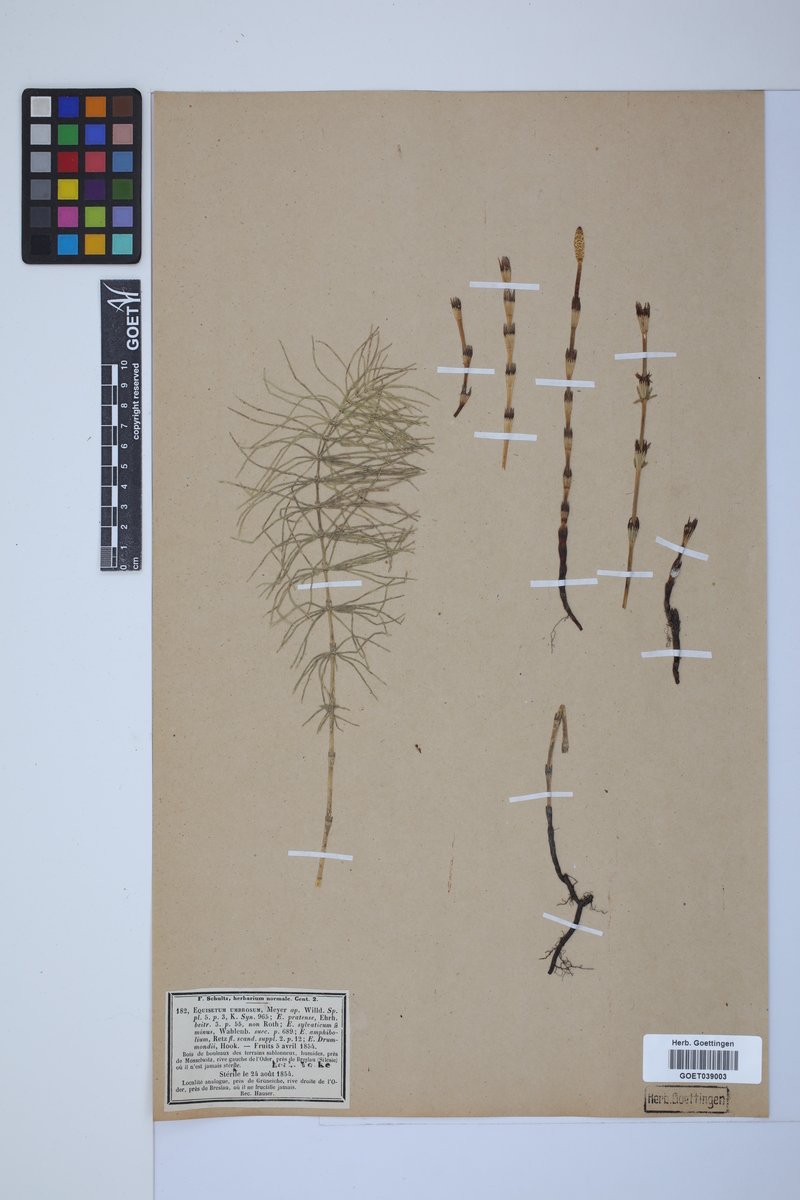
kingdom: Plantae
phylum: Tracheophyta
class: Polypodiopsida
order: Equisetales
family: Equisetaceae
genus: Equisetum
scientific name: Equisetum pratense
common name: Meadow horsetail
